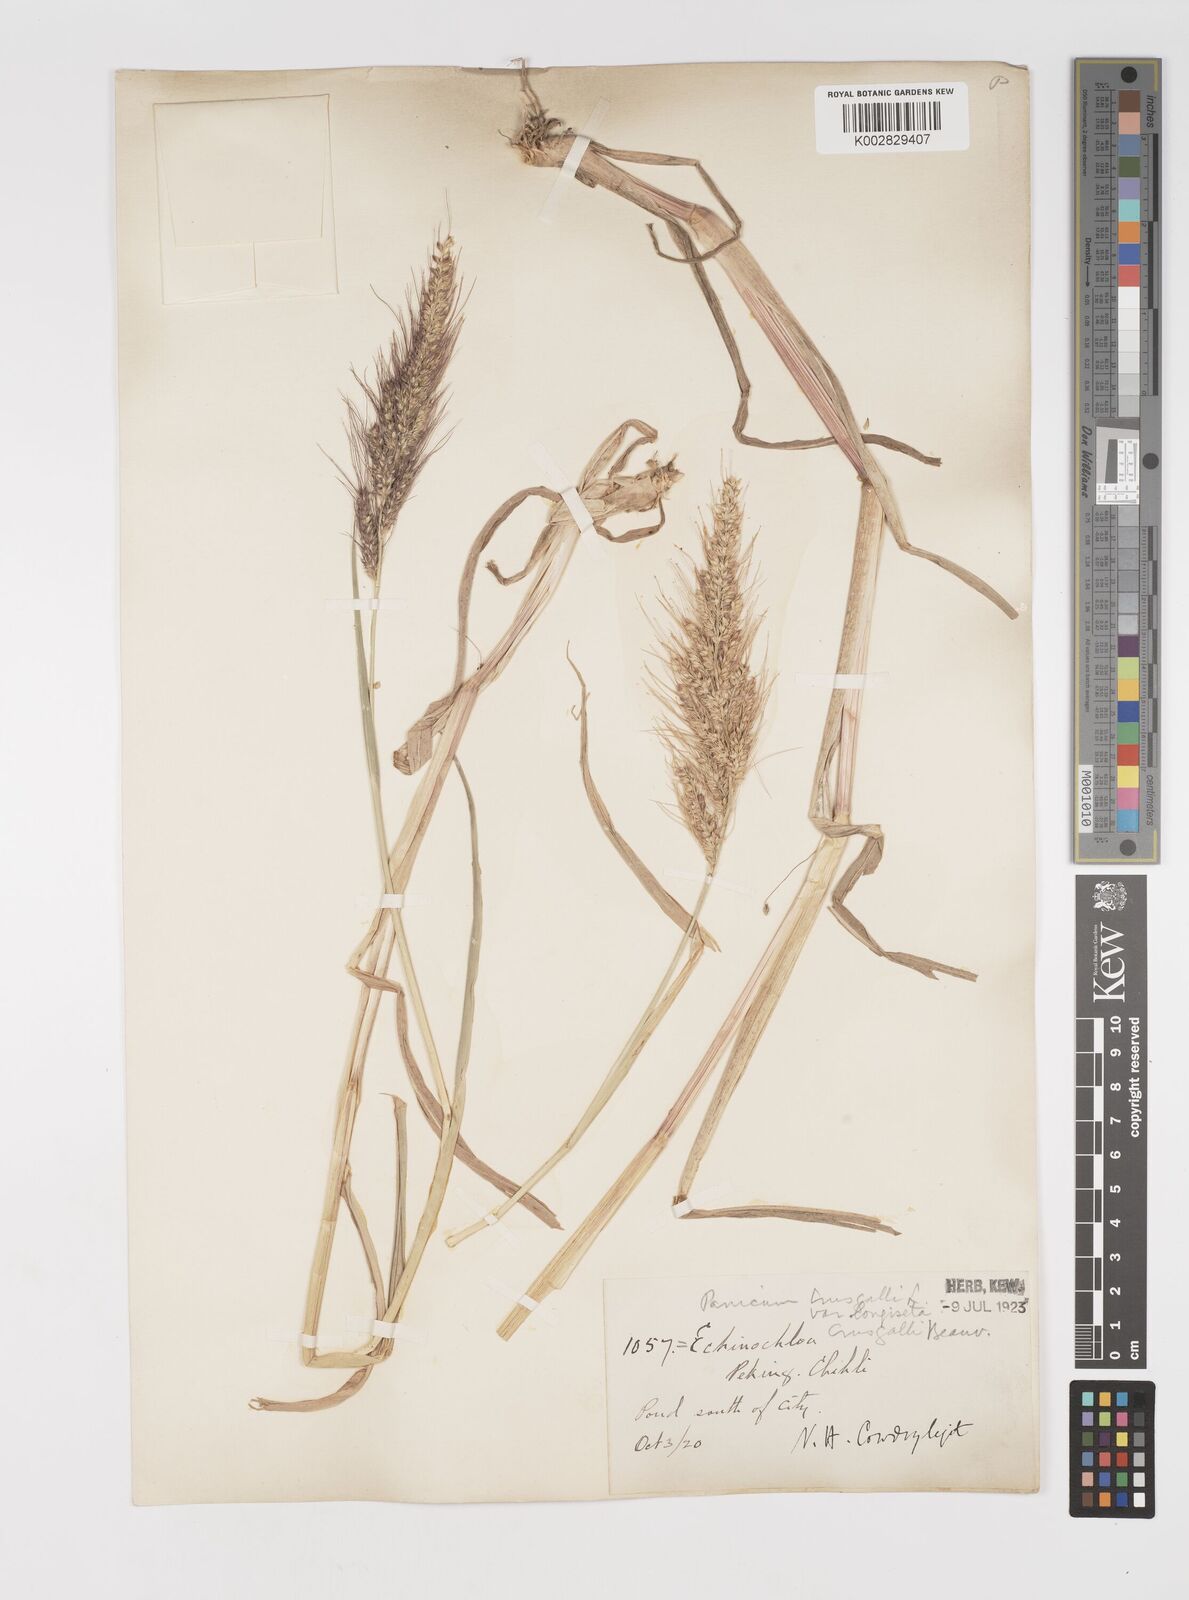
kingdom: Plantae
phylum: Tracheophyta
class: Liliopsida
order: Poales
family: Poaceae
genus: Echinochloa
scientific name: Echinochloa crus-galli
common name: Cockspur
